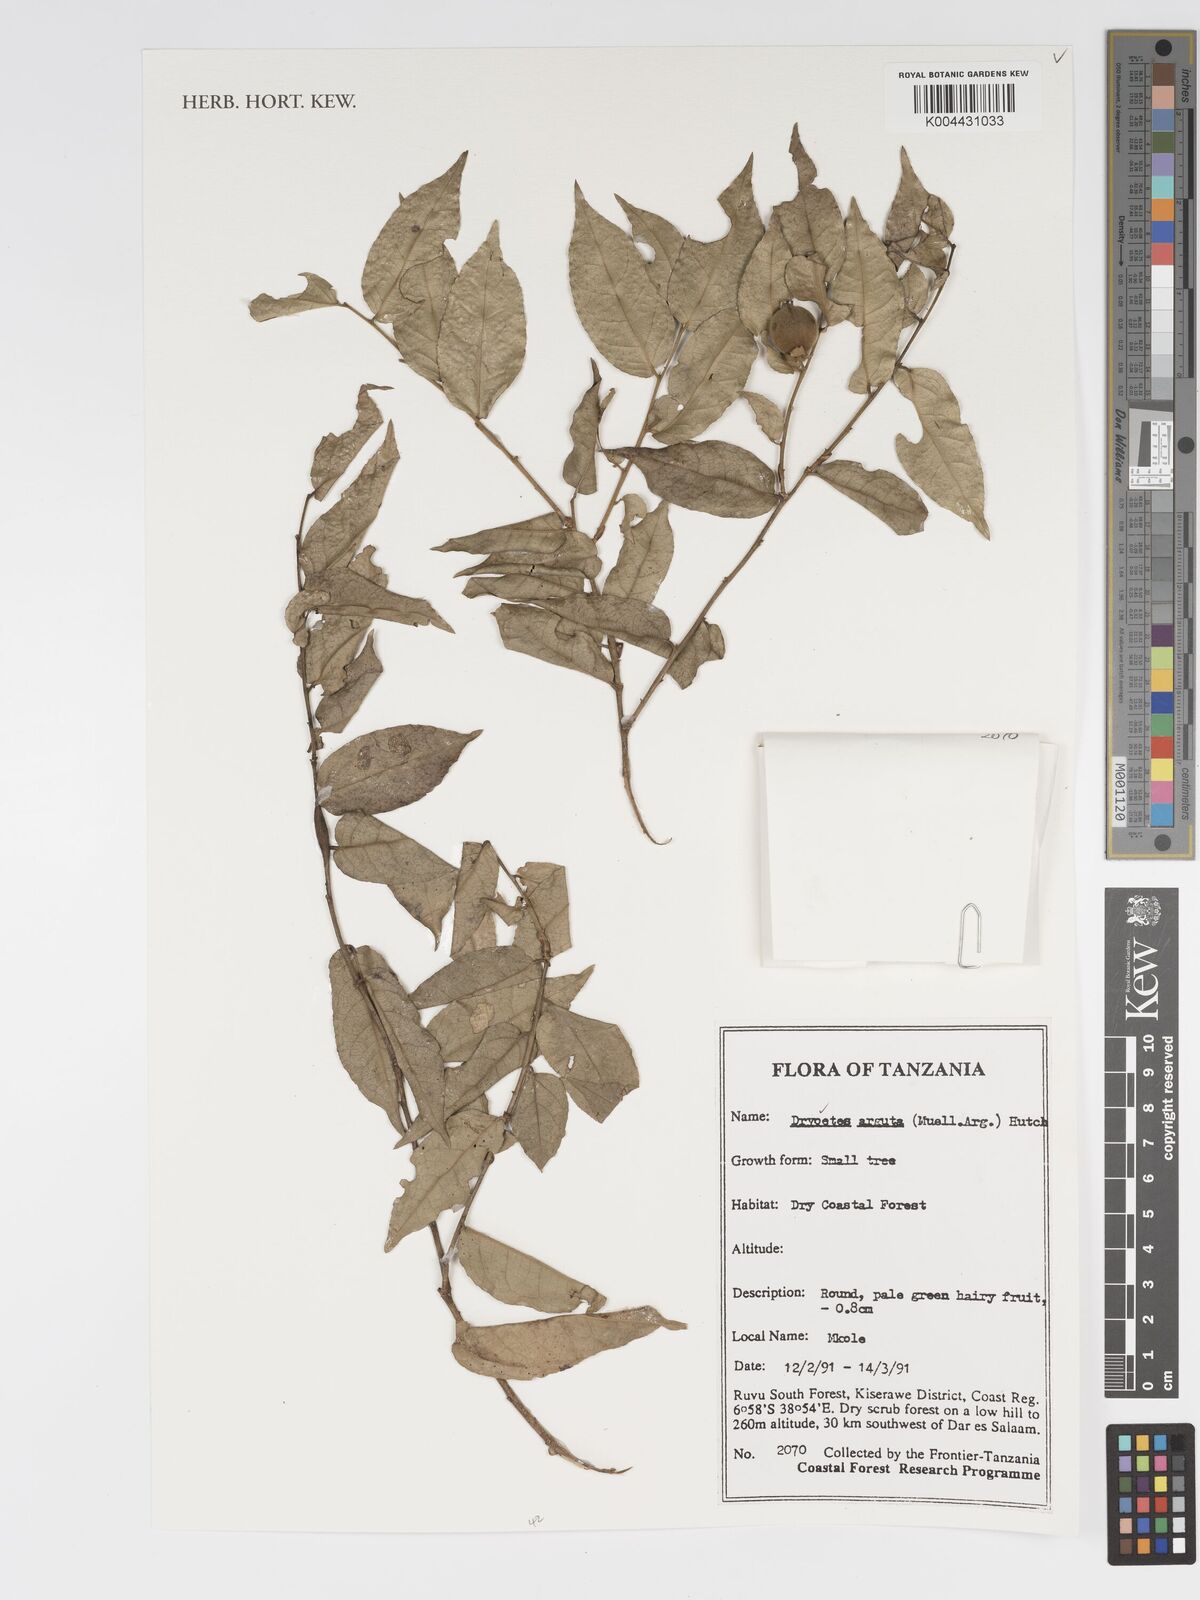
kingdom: Plantae
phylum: Tracheophyta
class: Magnoliopsida
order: Malpighiales
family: Putranjivaceae
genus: Drypetes
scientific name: Drypetes arguta
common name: Water ironplum
